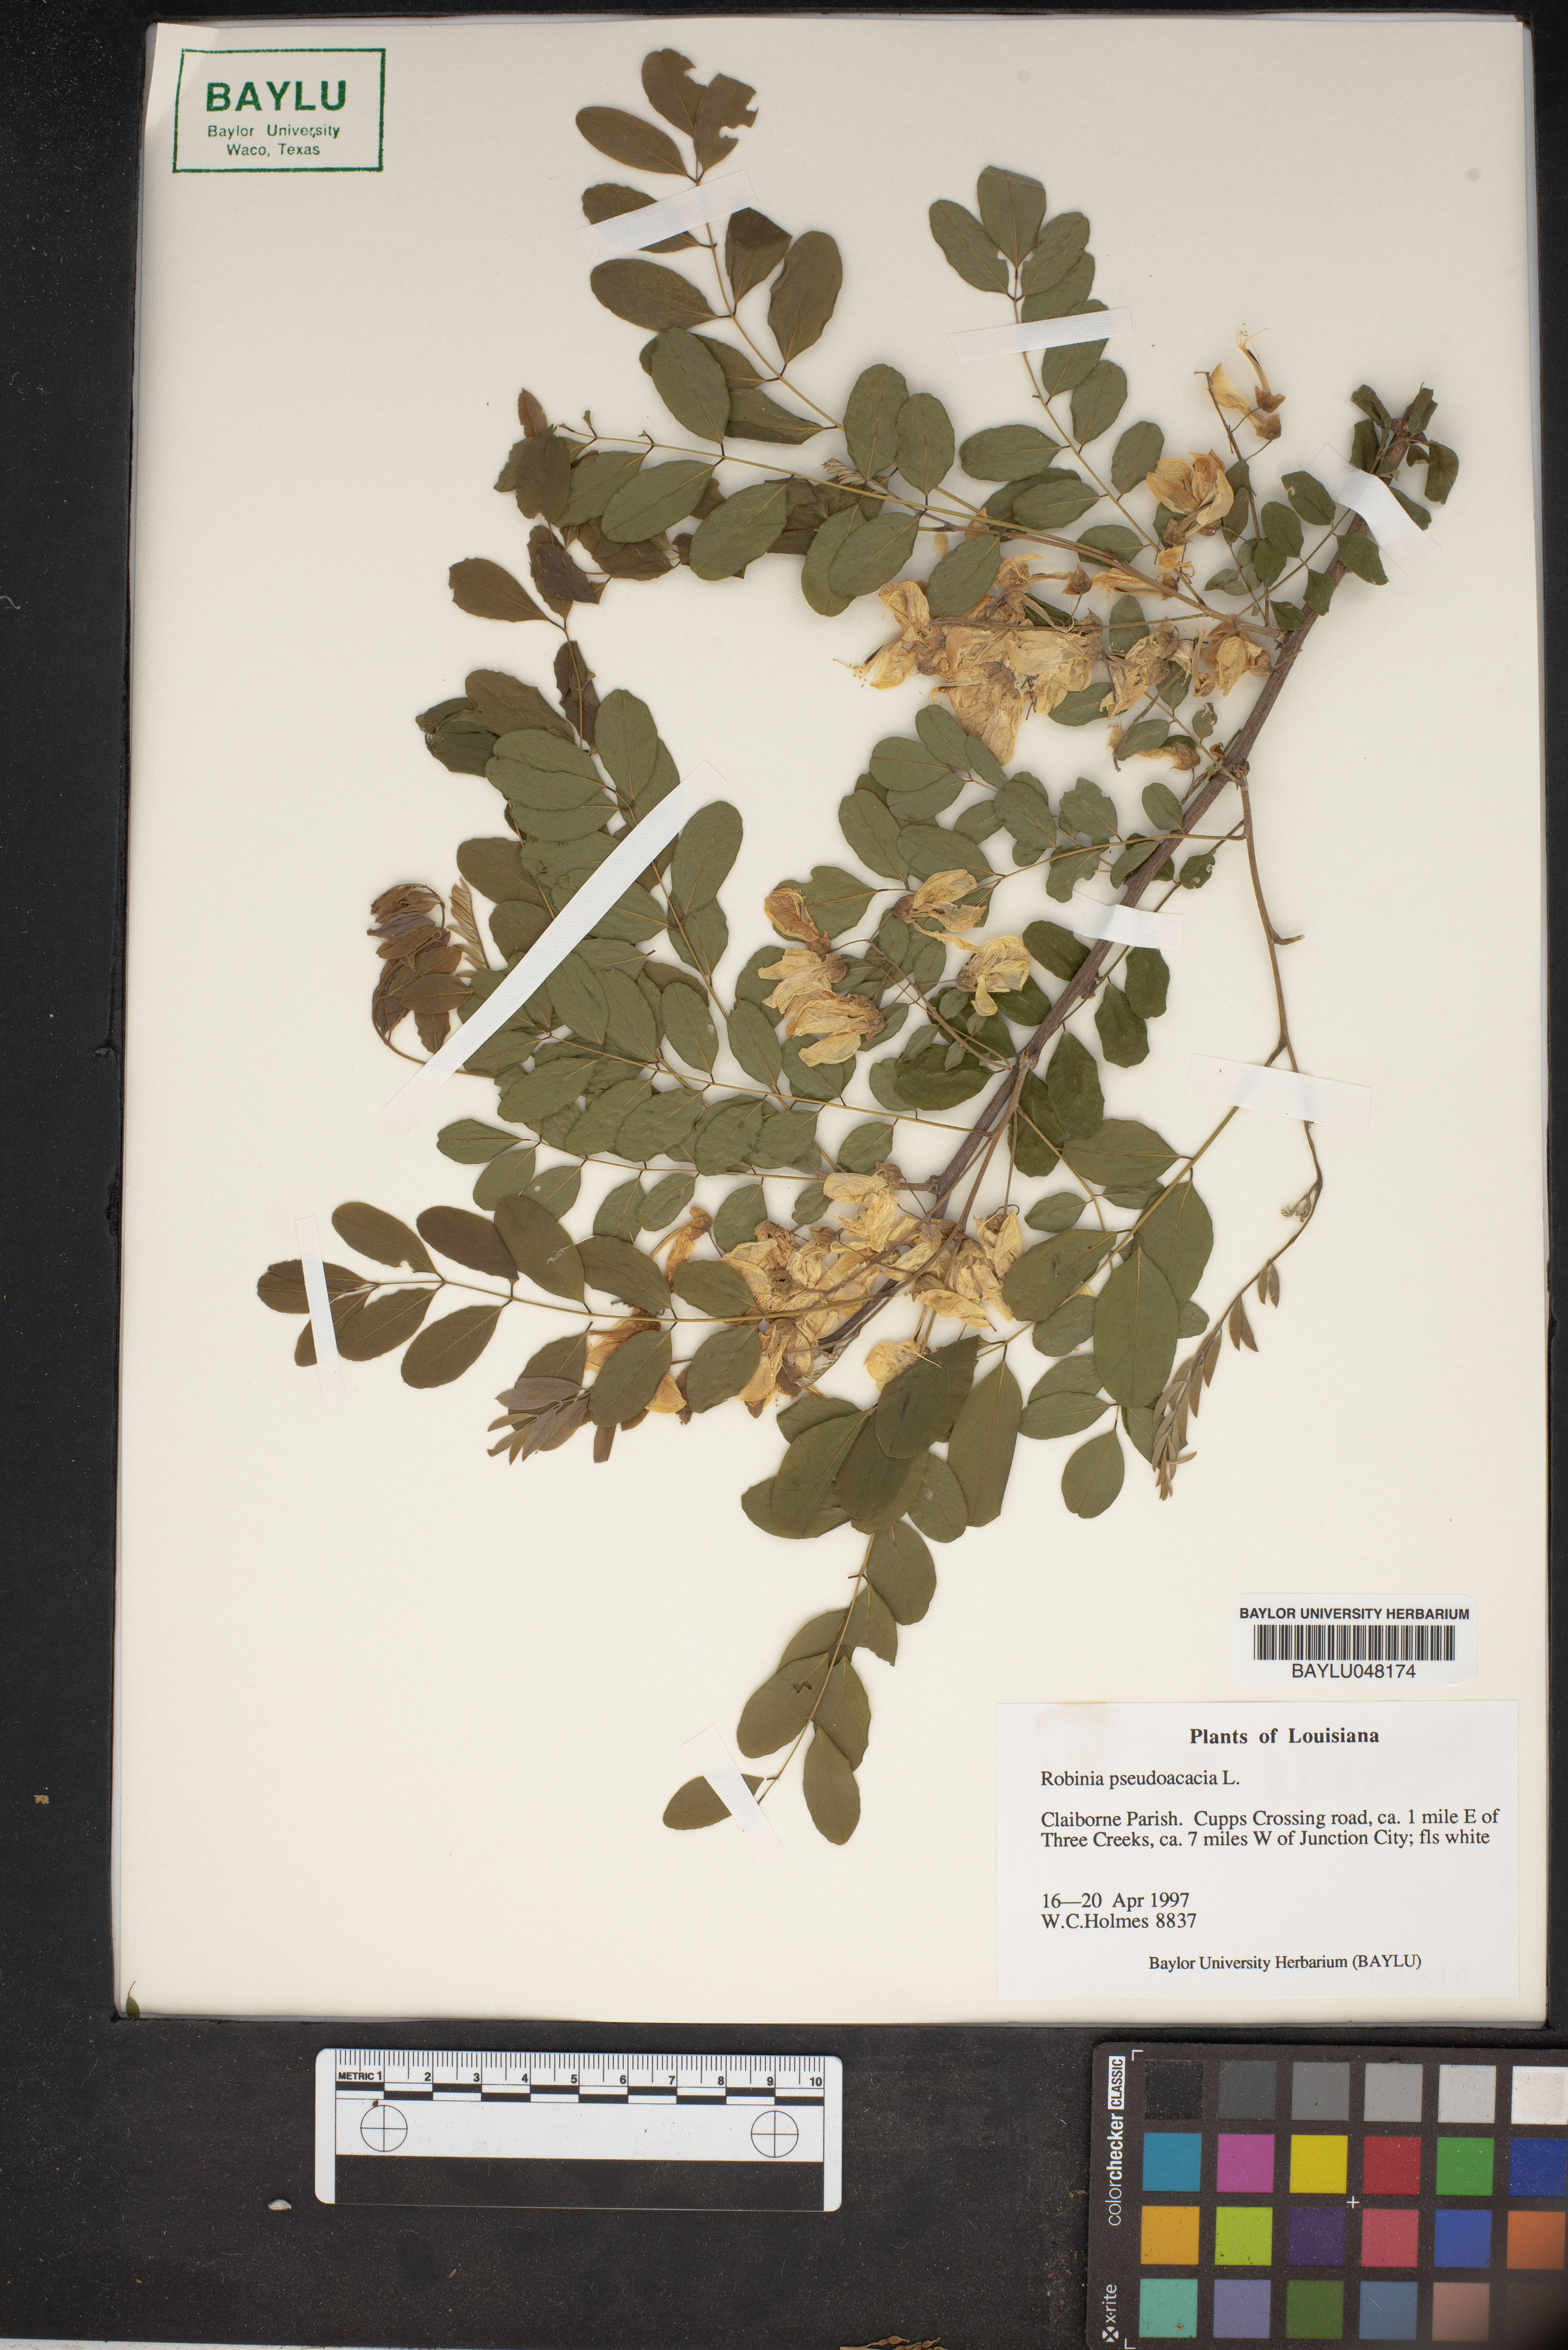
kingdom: Plantae
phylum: Tracheophyta
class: Magnoliopsida
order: Fabales
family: Fabaceae
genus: Robinia
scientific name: Robinia pseudoacacia
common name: Black locust
